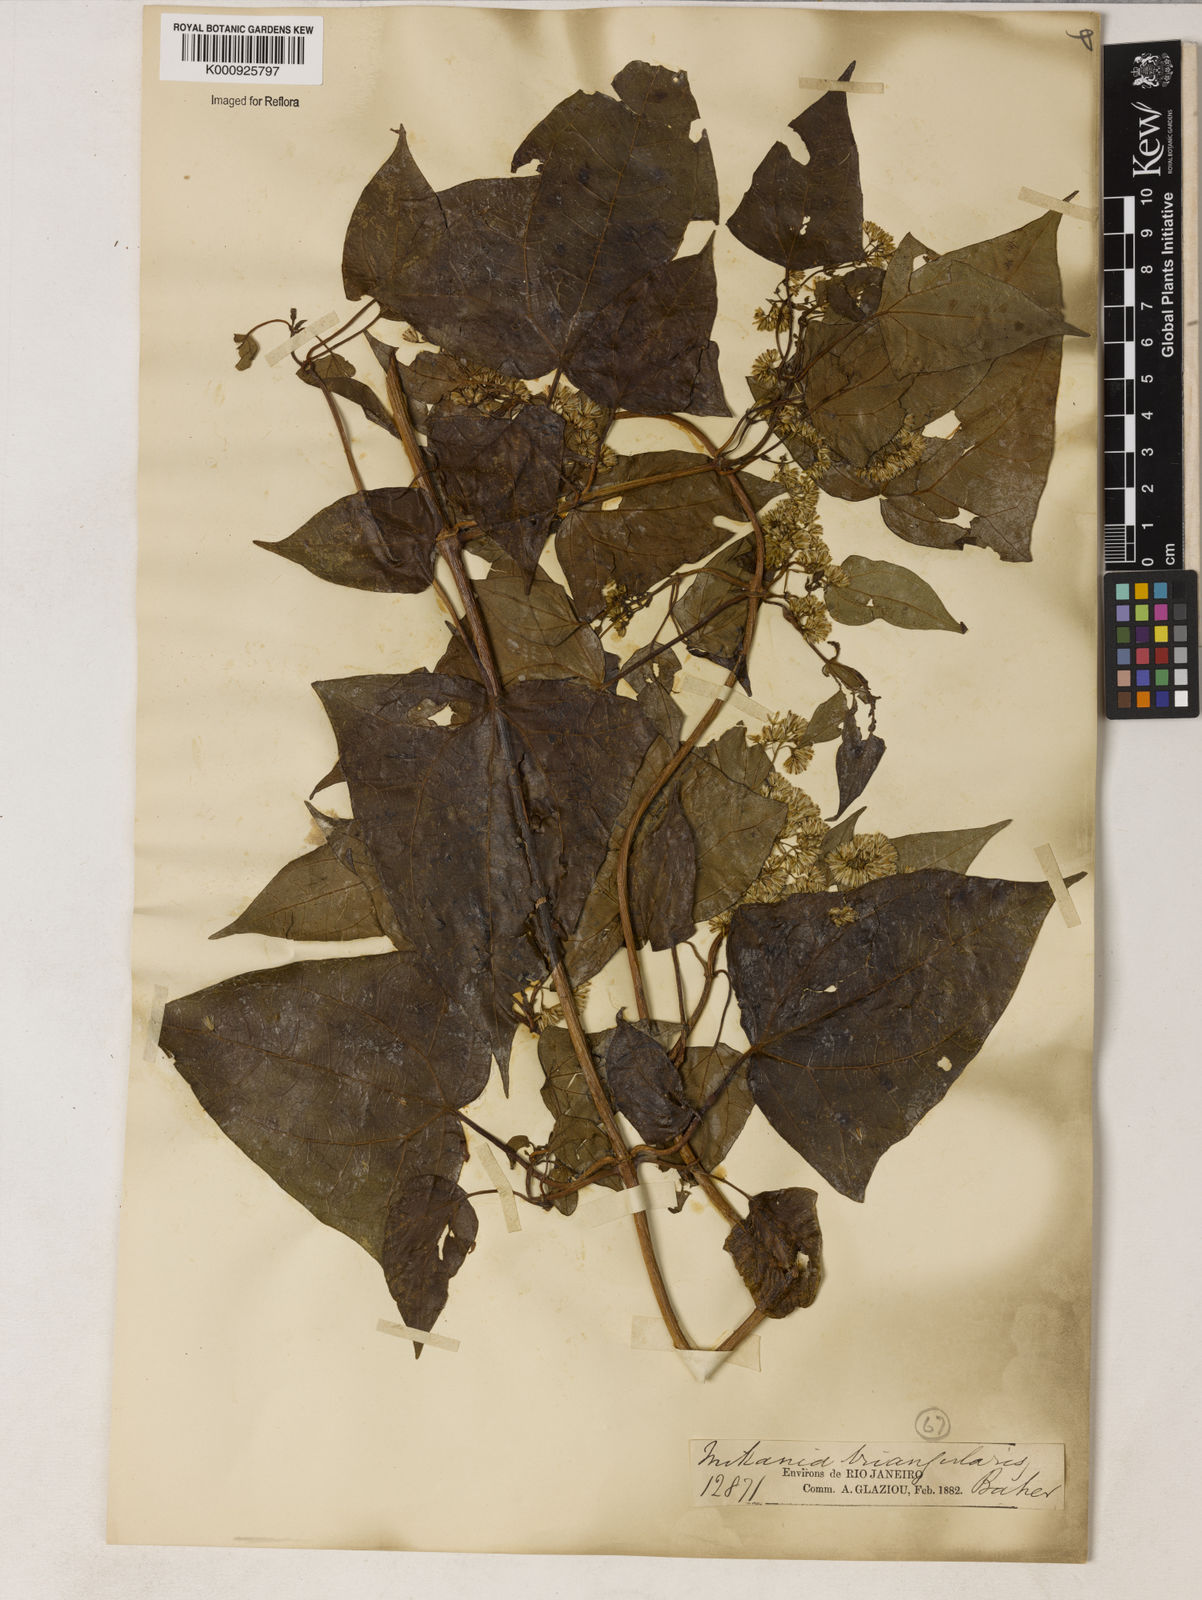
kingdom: Plantae
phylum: Tracheophyta
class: Magnoliopsida
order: Asterales
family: Asteraceae
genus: Mikania
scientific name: Mikania triangularis
